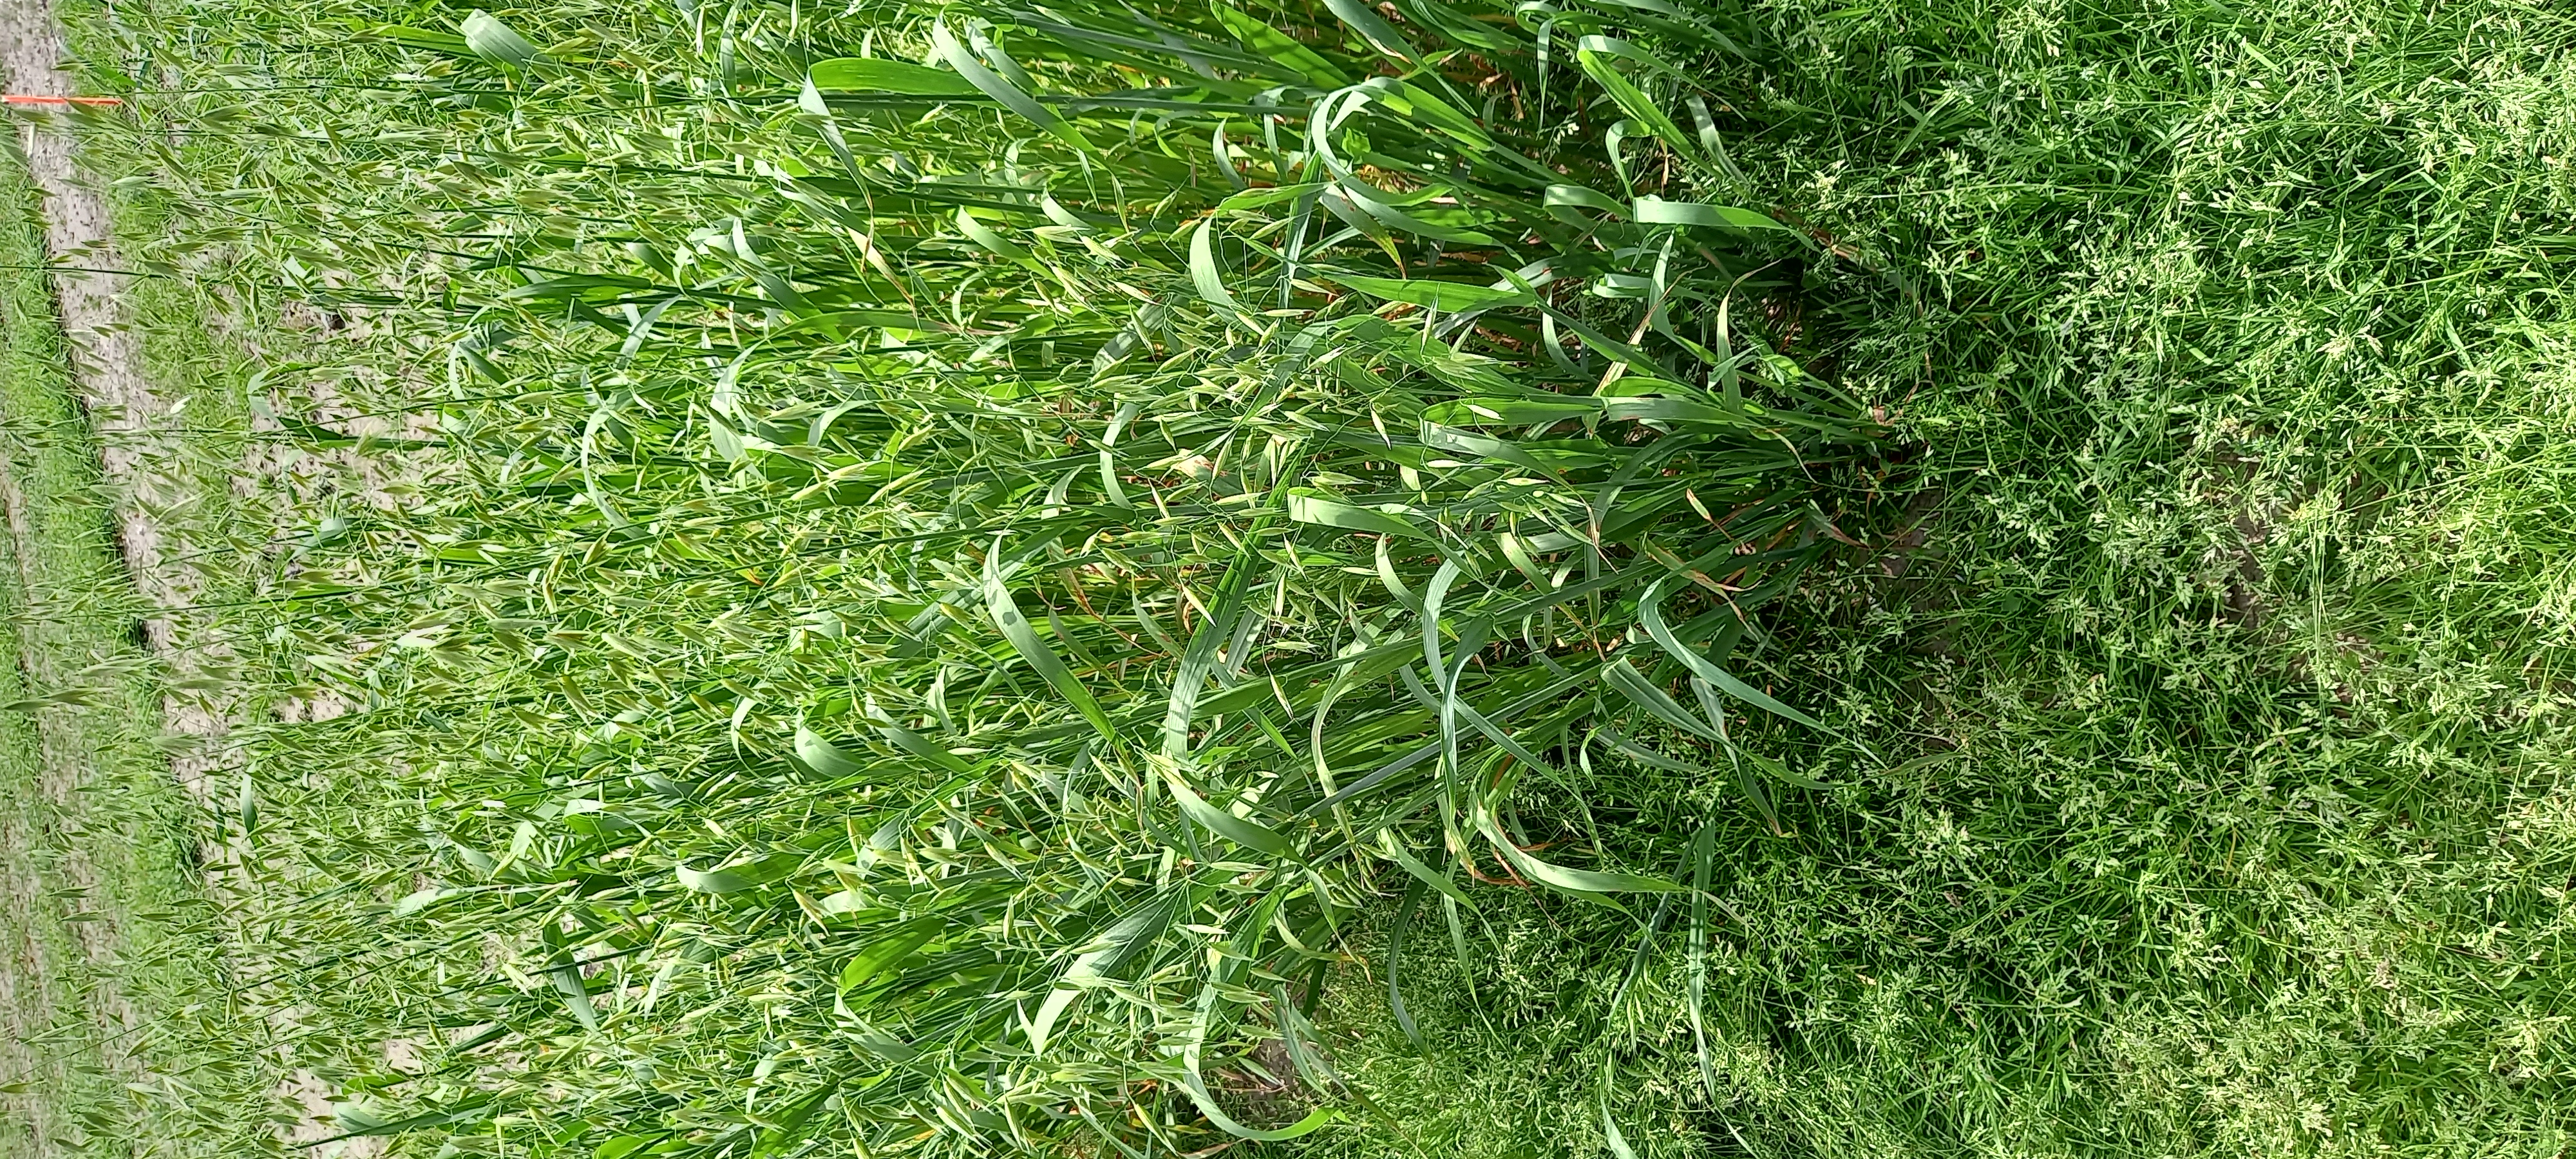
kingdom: Plantae
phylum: Tracheophyta
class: Liliopsida
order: Poales
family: Poaceae
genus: Avena
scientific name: Avena sativa
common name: Oat
